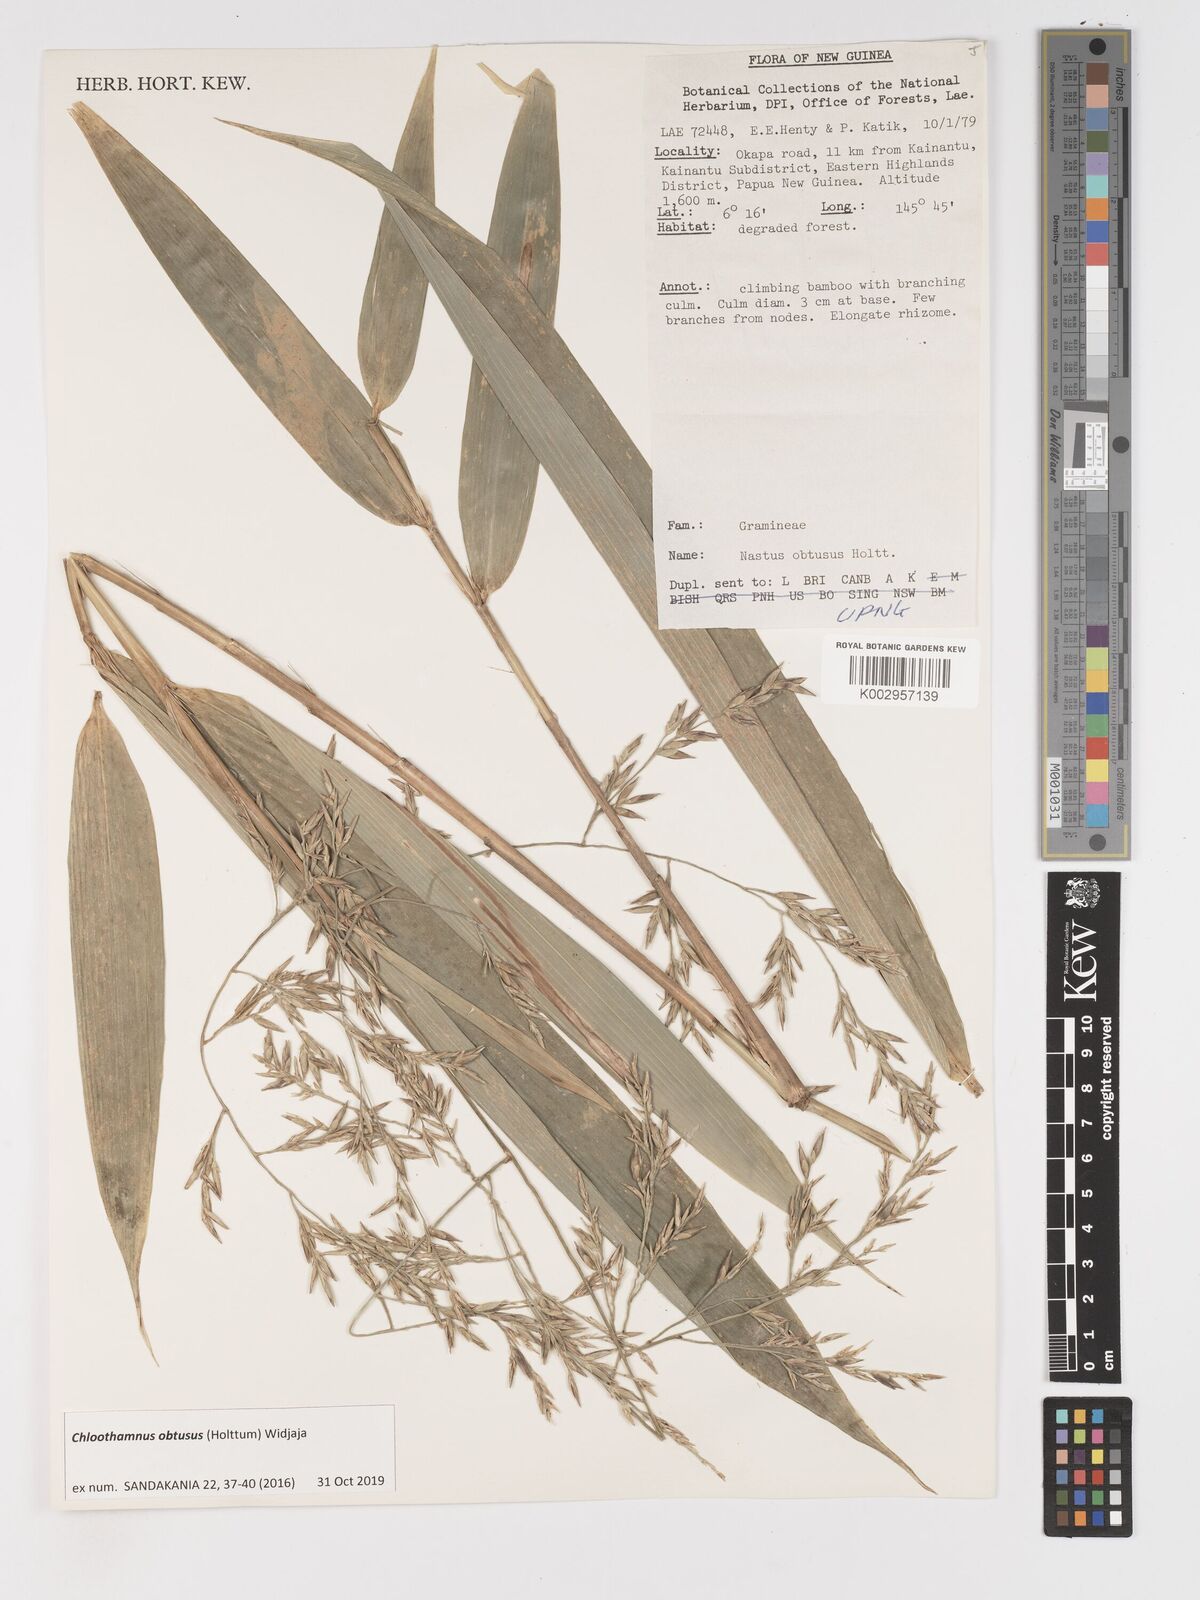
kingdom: Plantae
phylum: Tracheophyta
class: Liliopsida
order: Poales
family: Poaceae
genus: Chloothamnus
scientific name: Chloothamnus obtusus
